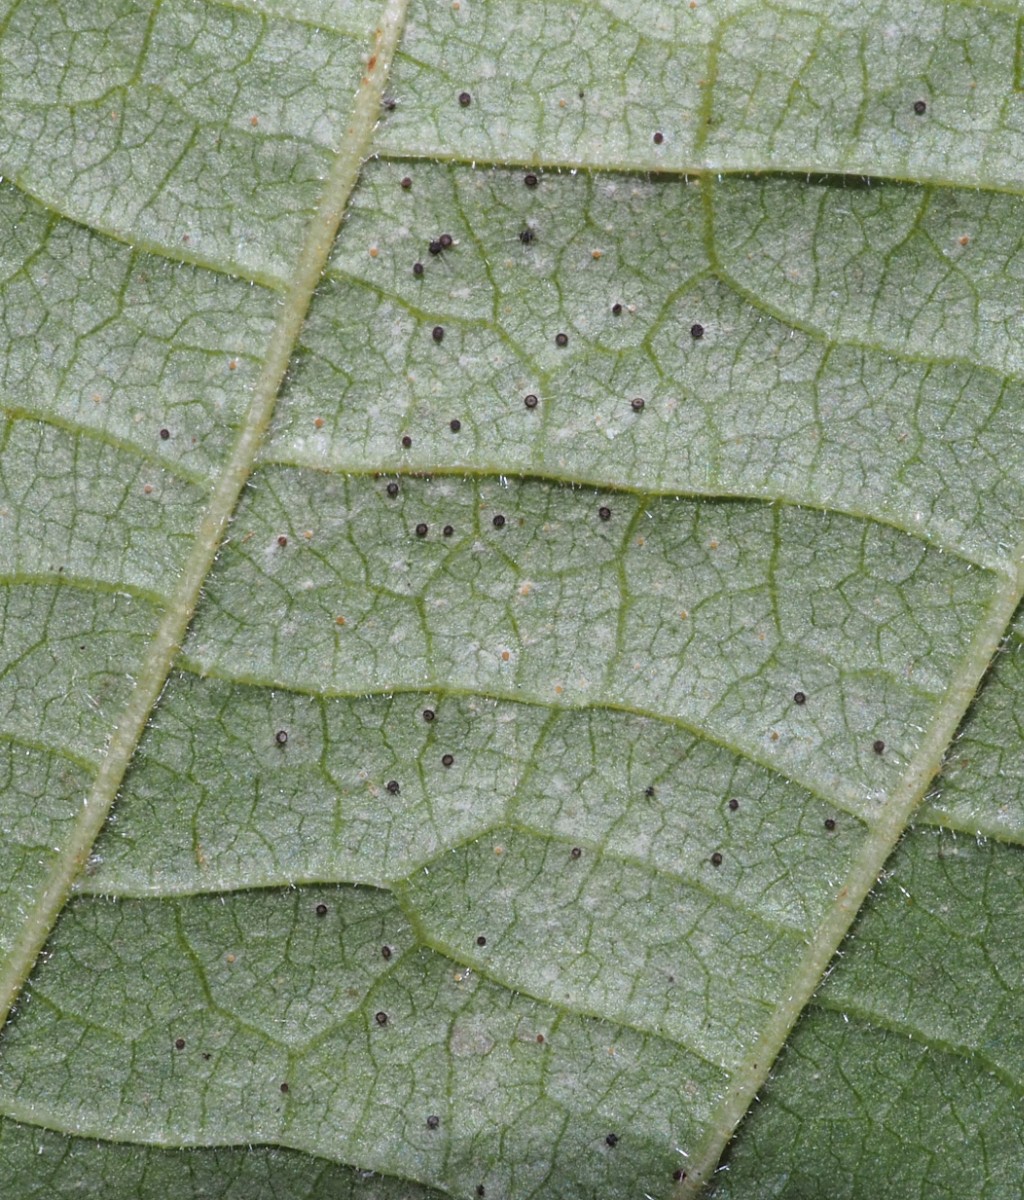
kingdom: Fungi
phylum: Ascomycota
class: Leotiomycetes
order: Helotiales
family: Erysiphaceae
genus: Phyllactinia
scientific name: Phyllactinia guttata
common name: hassel-meldug
